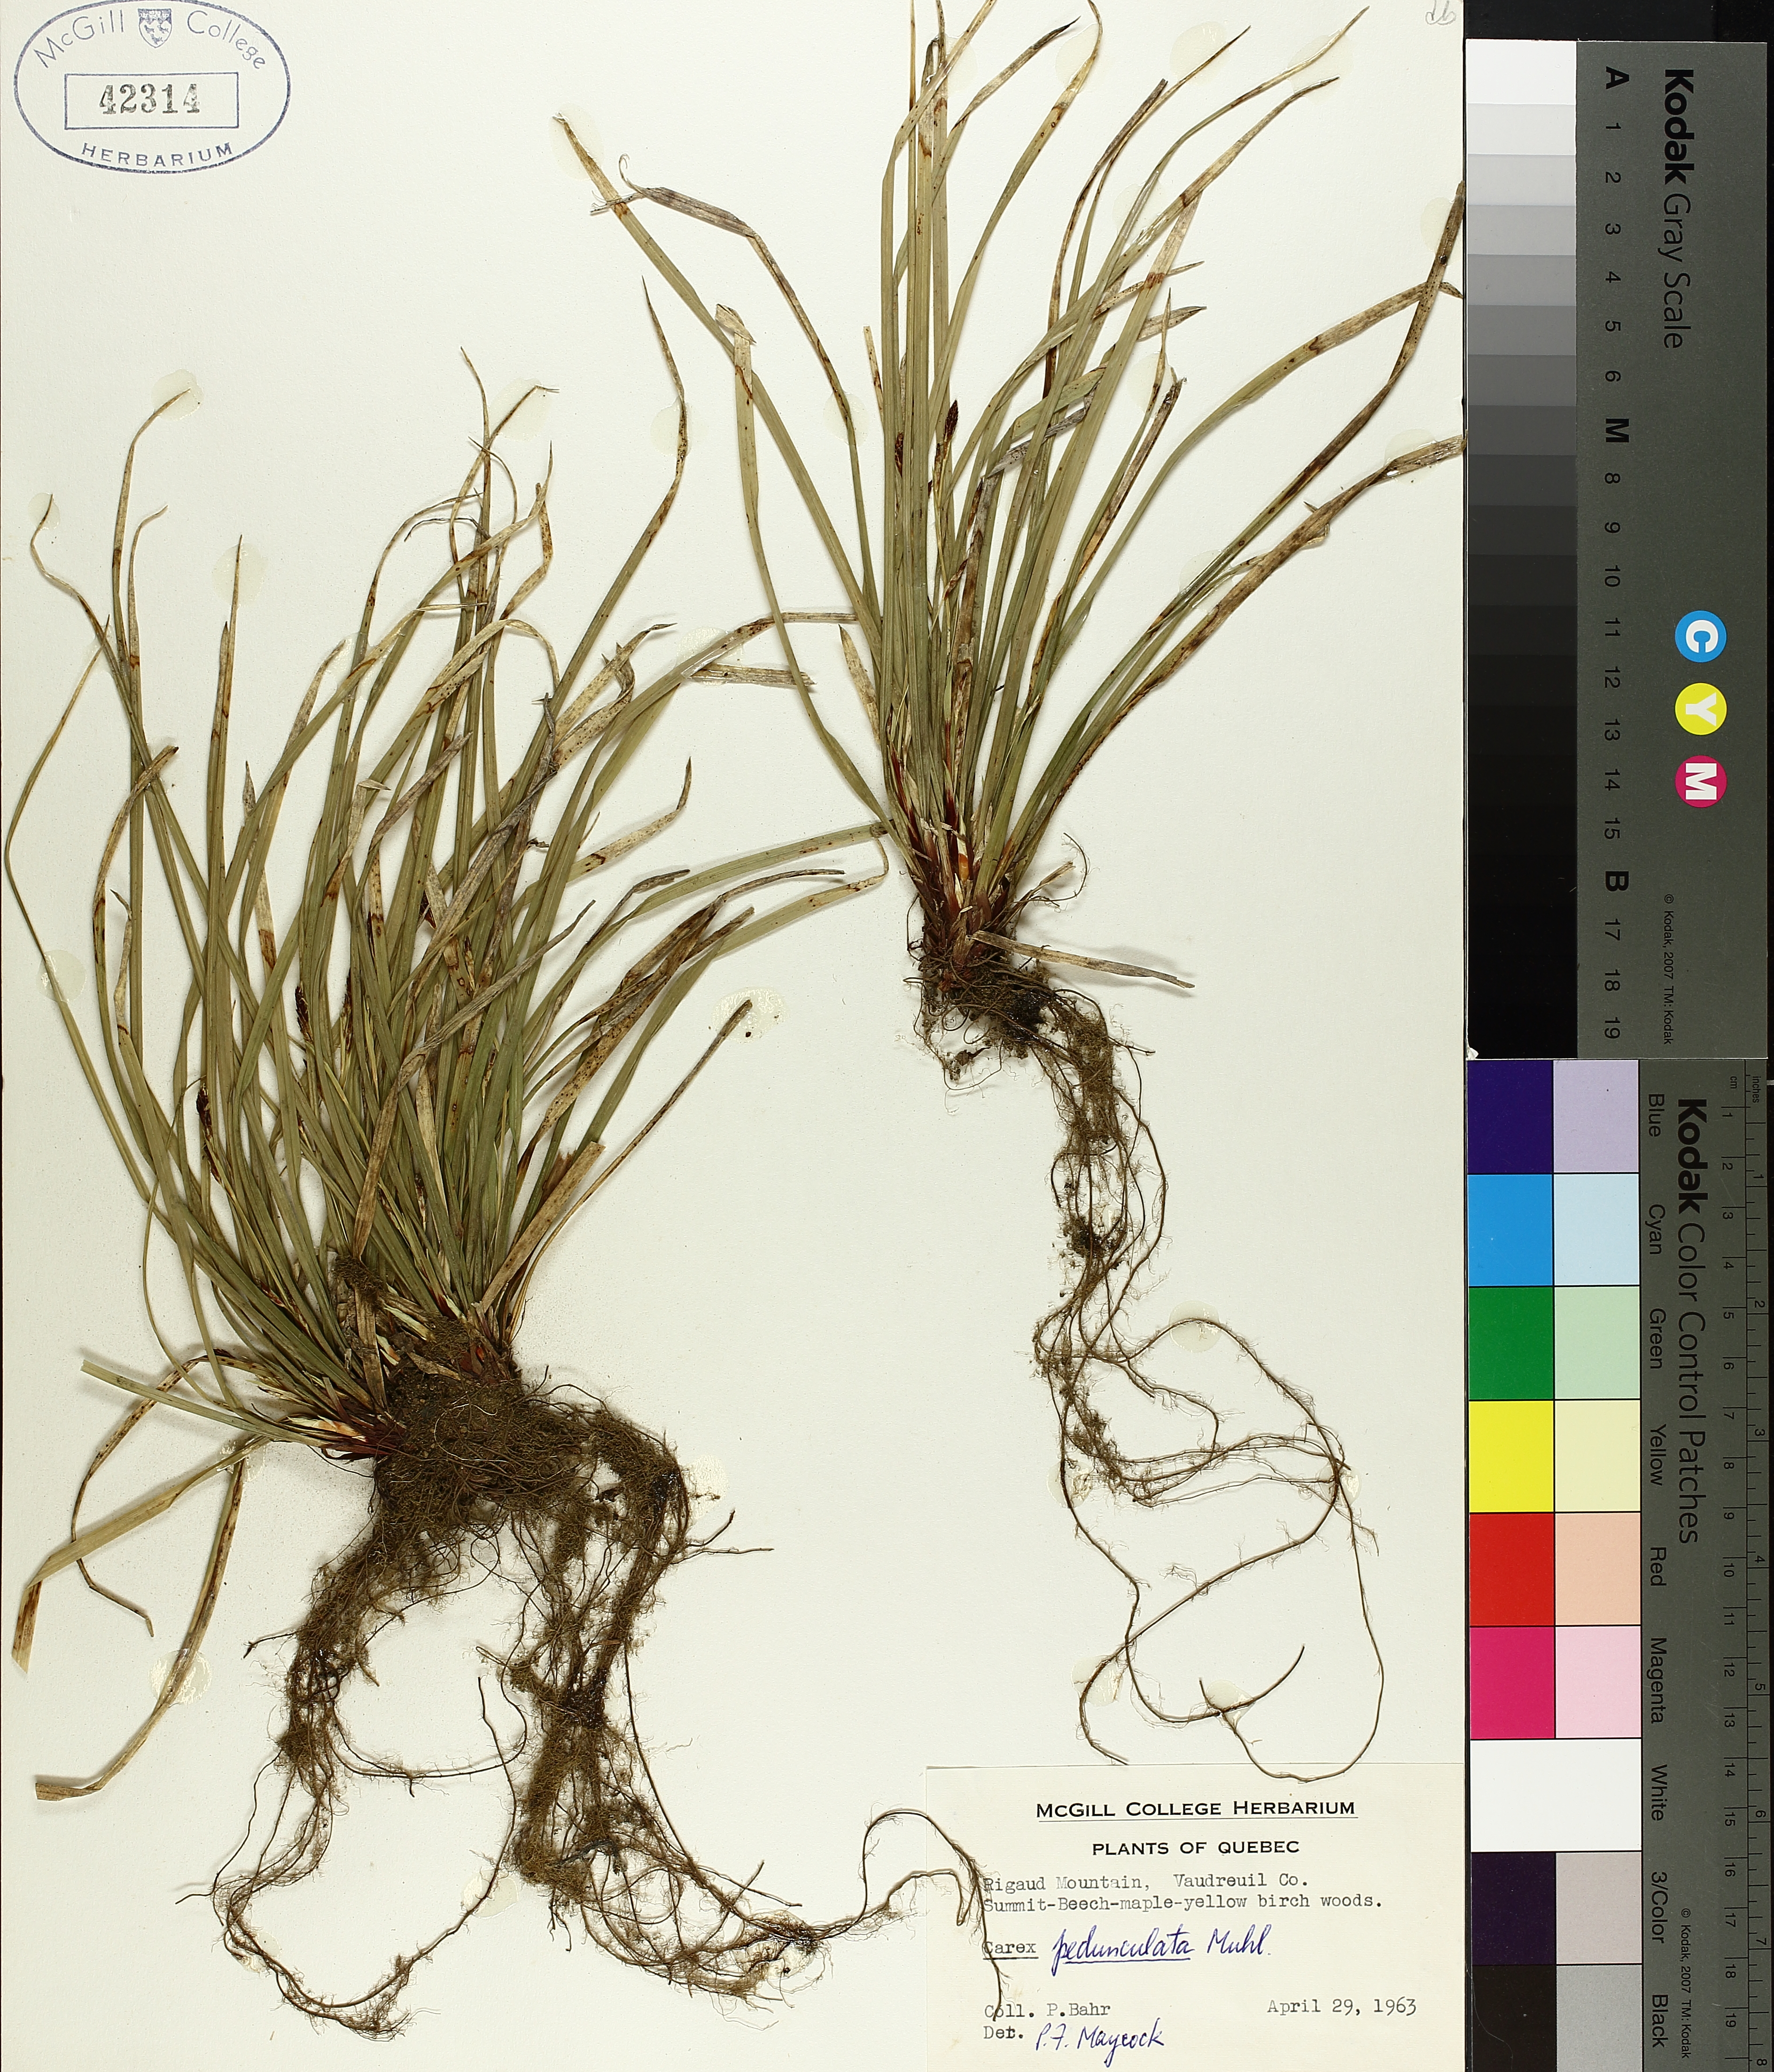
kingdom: Plantae
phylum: Tracheophyta
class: Liliopsida
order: Poales
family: Cyperaceae
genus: Carex
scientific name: Carex pedunculata
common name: Pedunculate sedge
